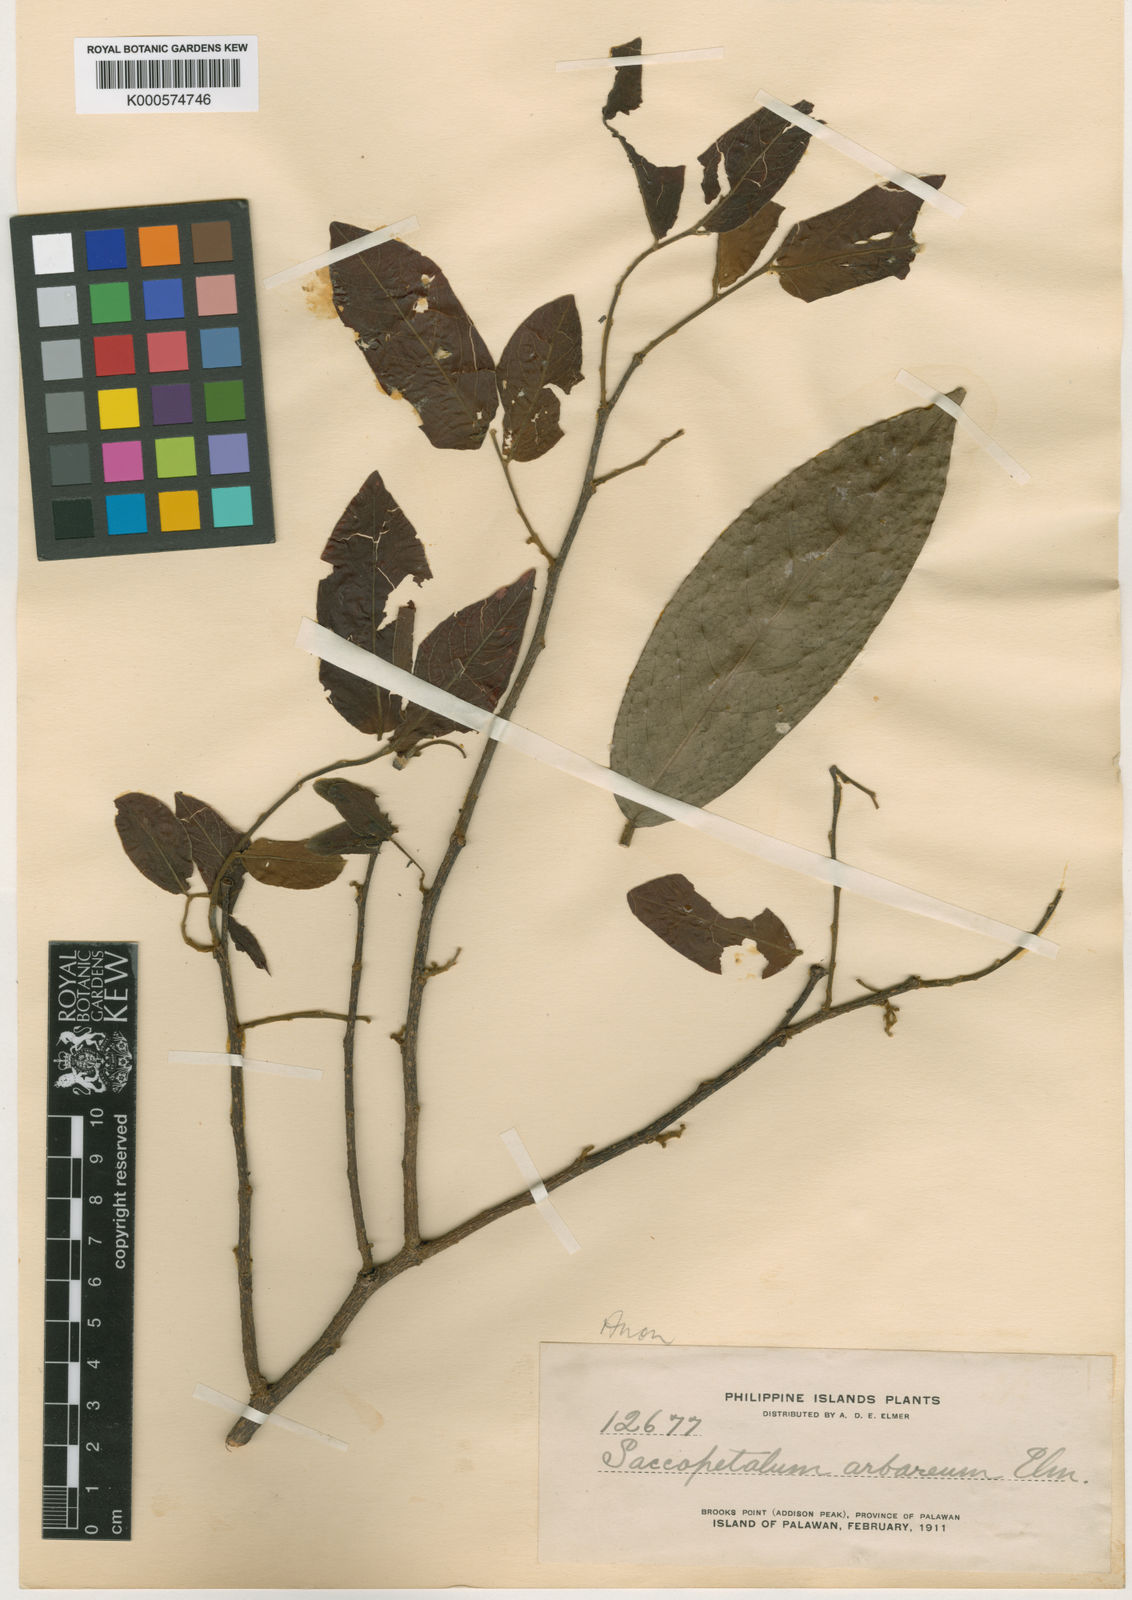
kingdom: Plantae
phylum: Tracheophyta
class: Magnoliopsida
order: Magnoliales
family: Annonaceae
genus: Miliusa
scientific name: Miliusa horsfieldii
